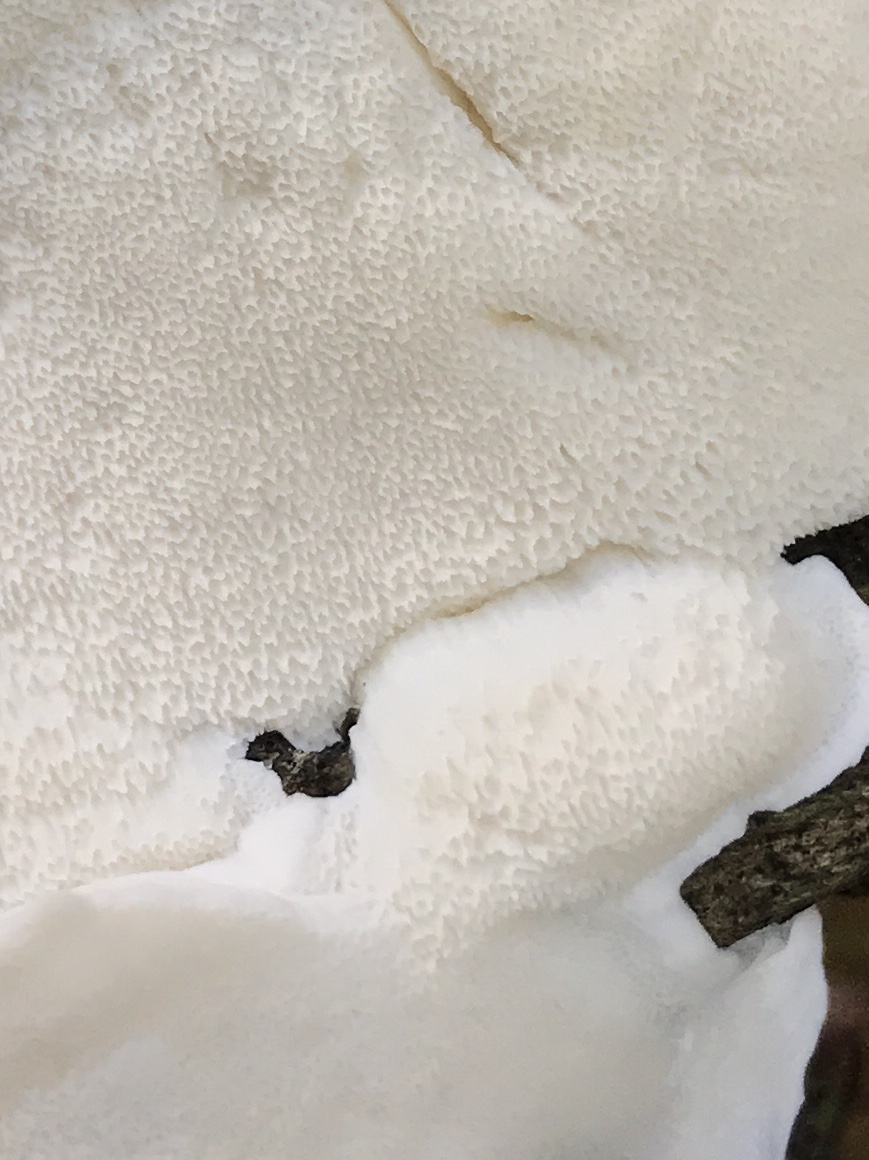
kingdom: Fungi
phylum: Basidiomycota
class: Agaricomycetes
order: Polyporales
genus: Amaropostia
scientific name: Amaropostia stiptica
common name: bitter kødporesvamp
